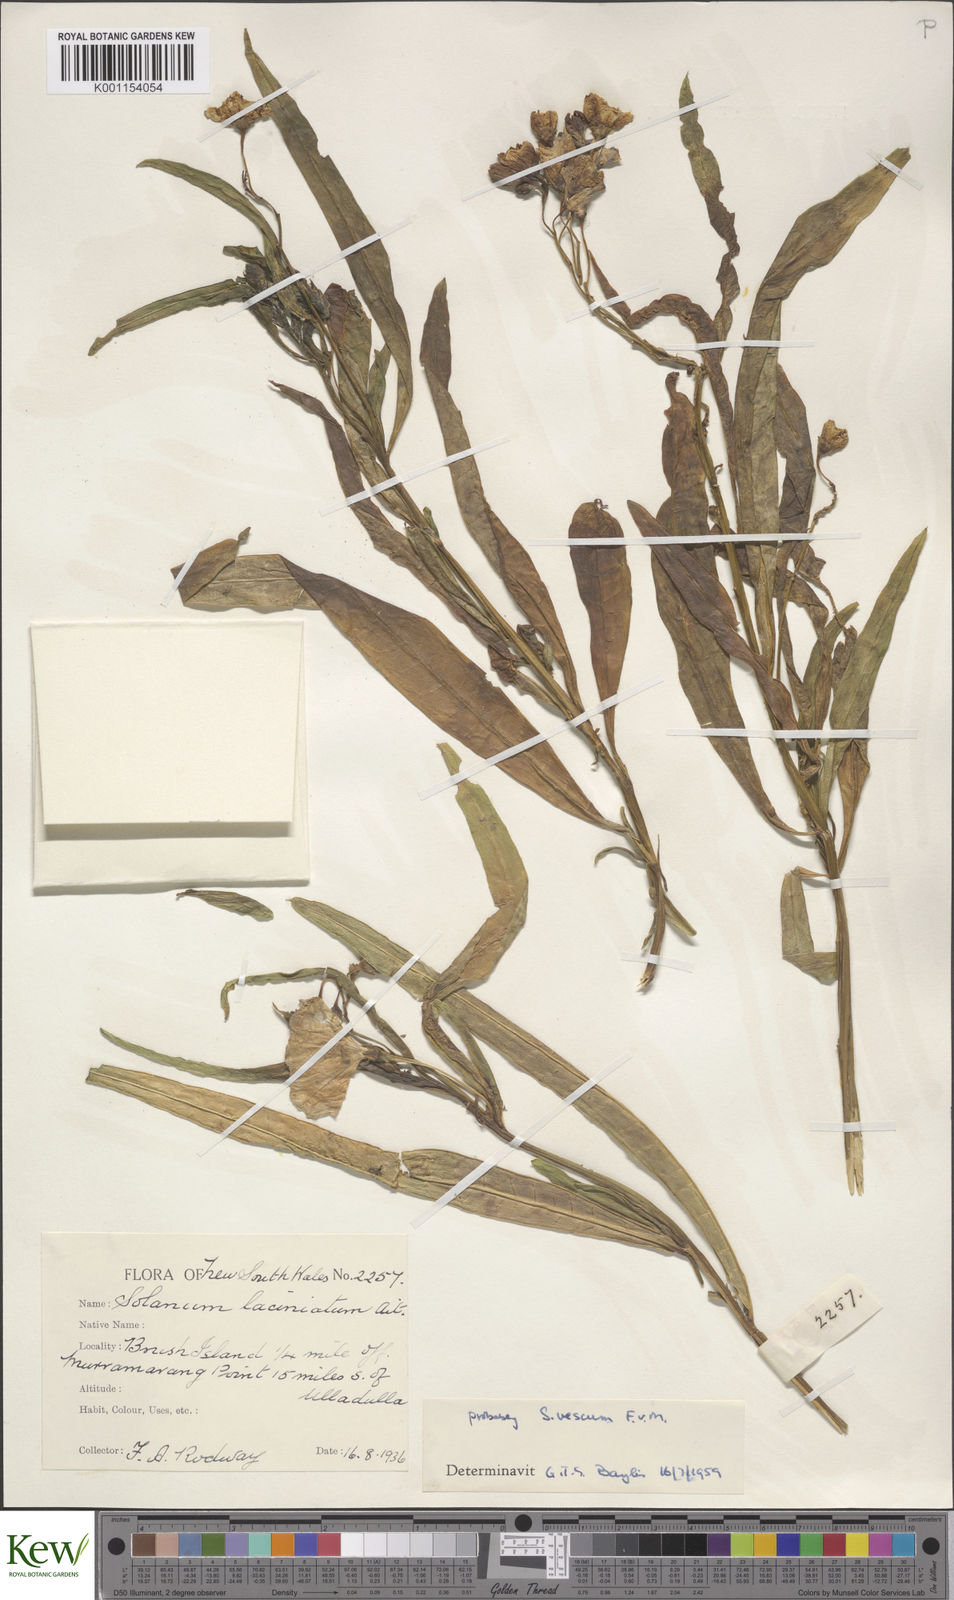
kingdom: Plantae
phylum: Tracheophyta
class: Magnoliopsida
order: Solanales
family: Solanaceae
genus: Solanum
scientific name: Solanum vescum
